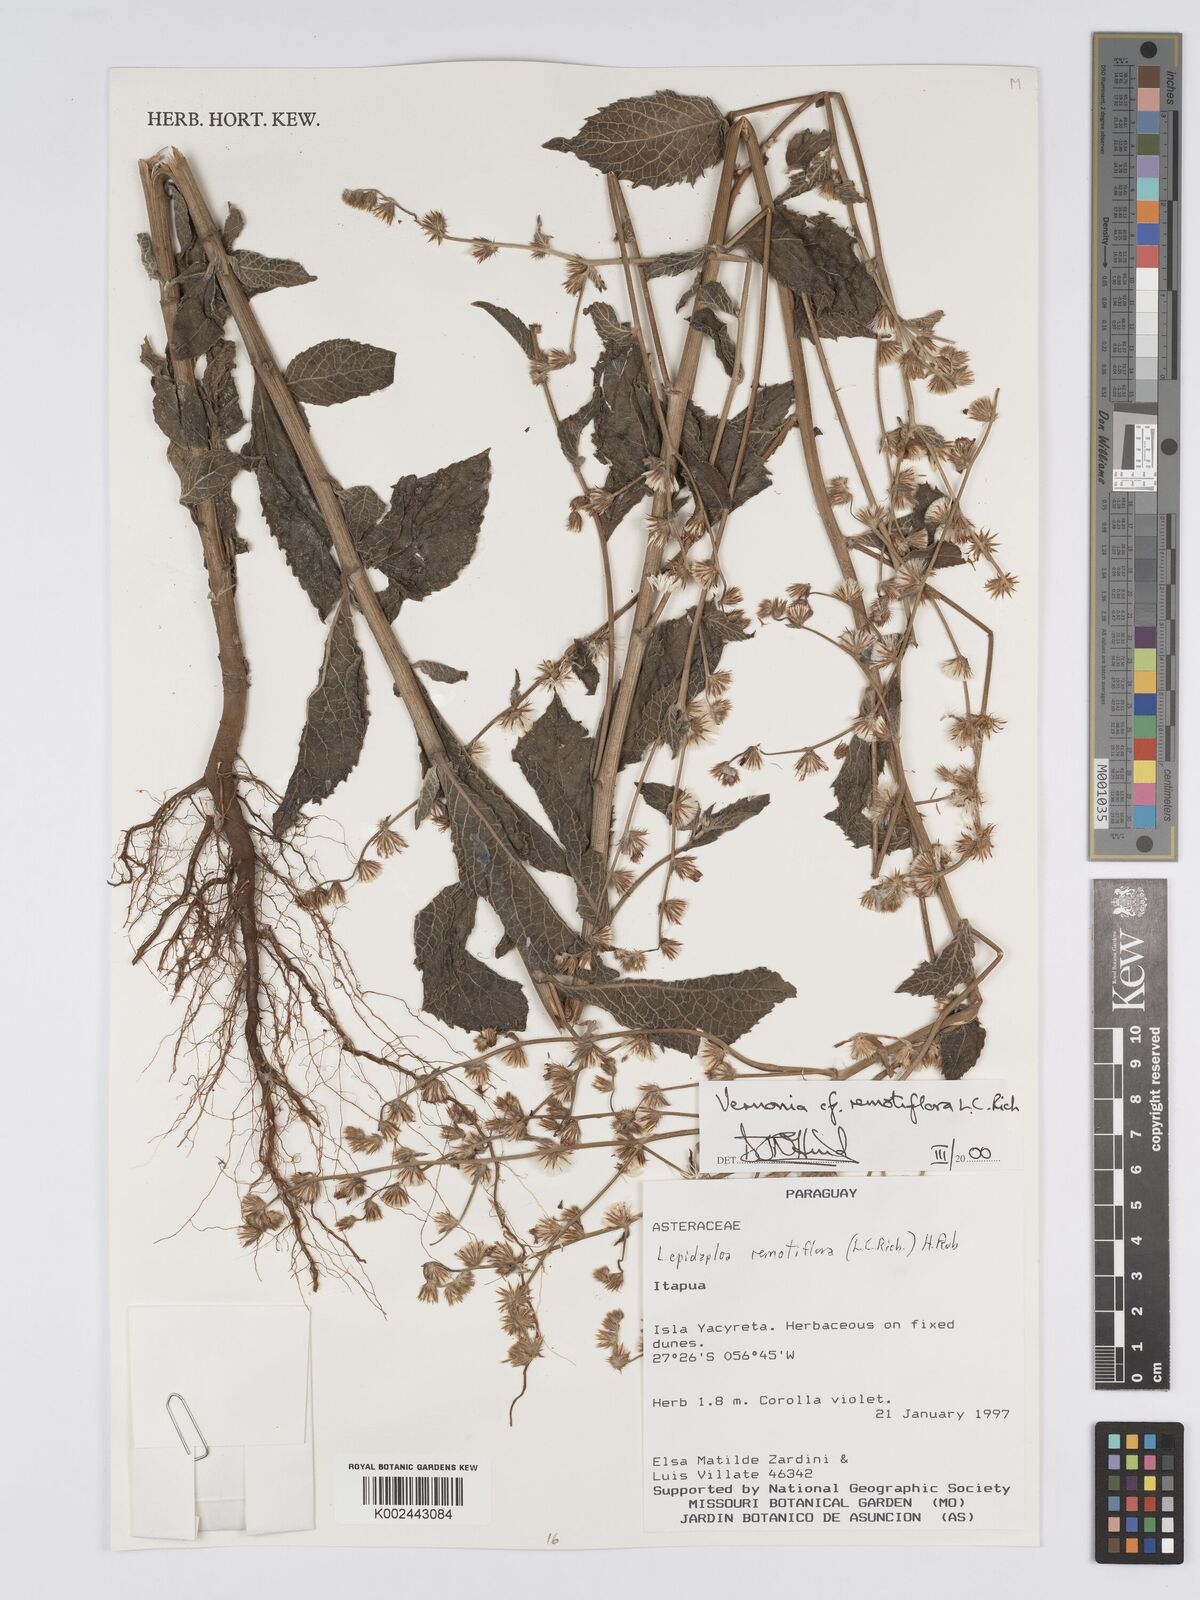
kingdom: Plantae
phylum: Tracheophyta
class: Magnoliopsida
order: Asterales
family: Asteraceae
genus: Lepidaploa
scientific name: Lepidaploa remotiflora
